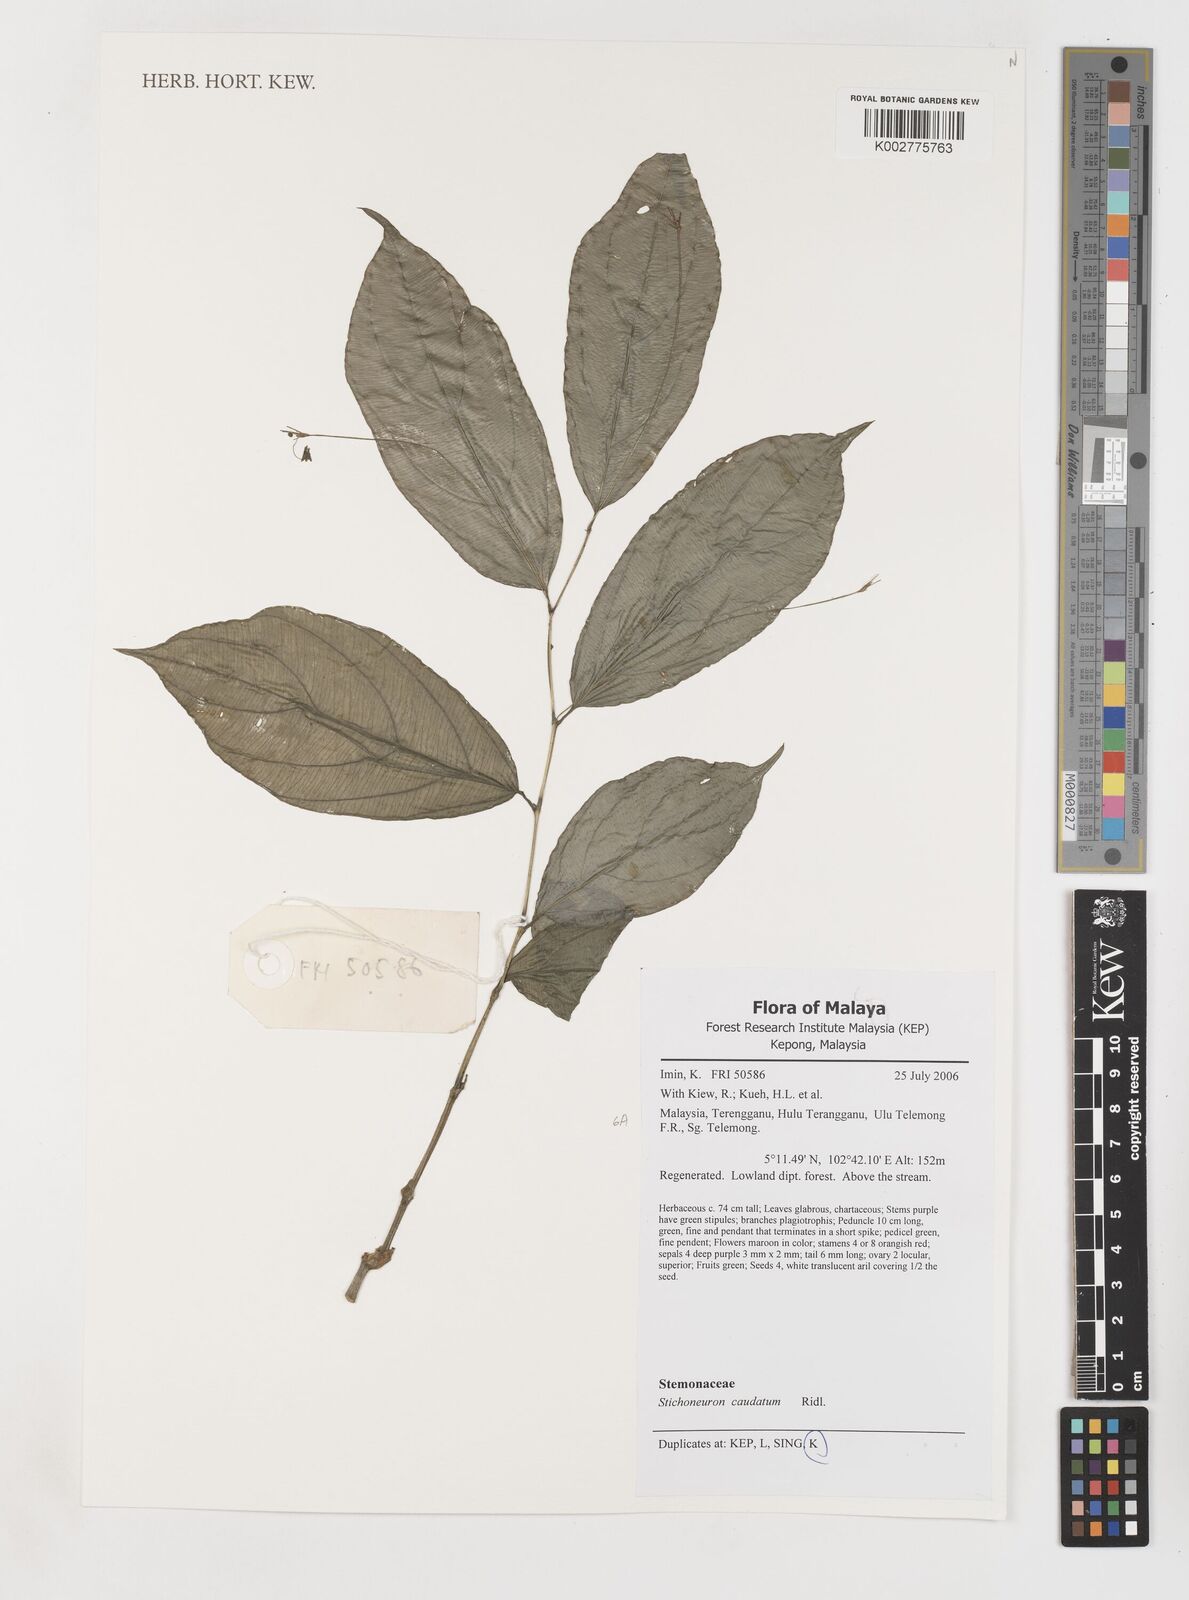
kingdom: Plantae
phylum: Tracheophyta
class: Liliopsida
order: Pandanales
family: Stemonaceae
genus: Stichoneuron
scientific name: Stichoneuron caudatum
